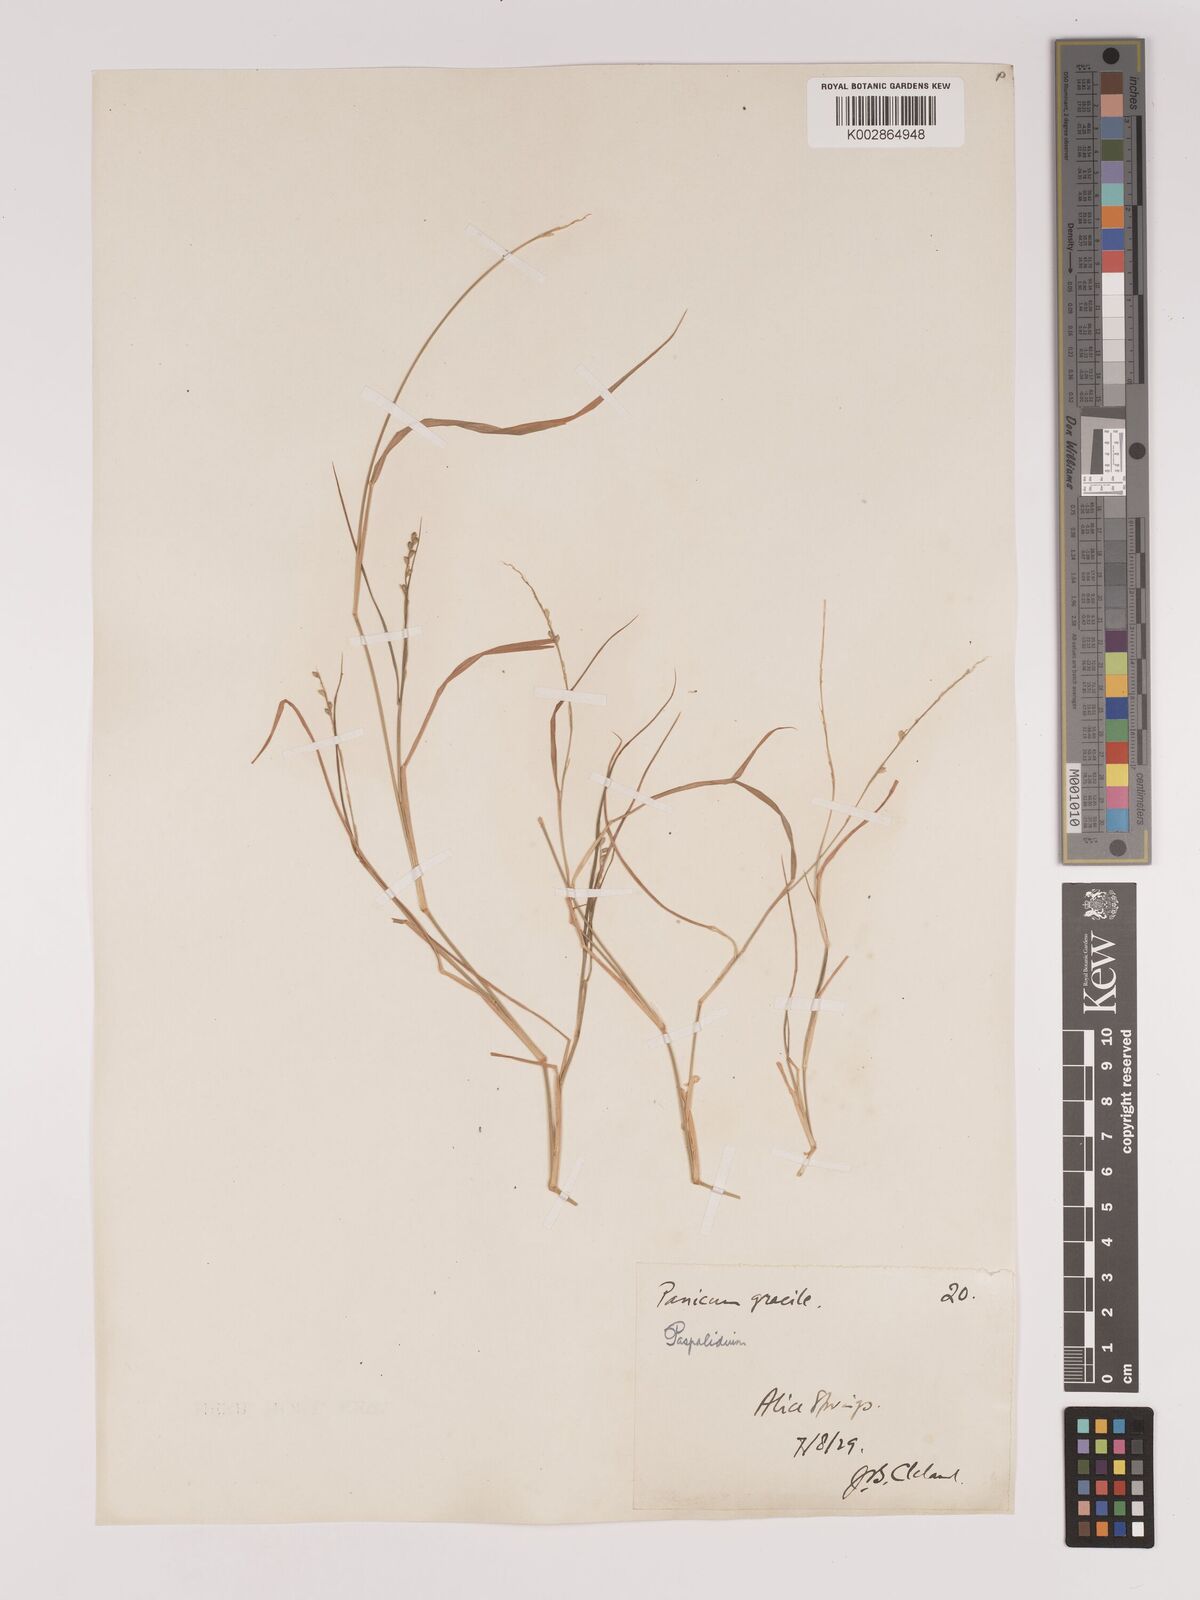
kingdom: Plantae
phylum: Tracheophyta
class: Liliopsida
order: Poales
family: Poaceae
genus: Setaria
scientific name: Setaria
